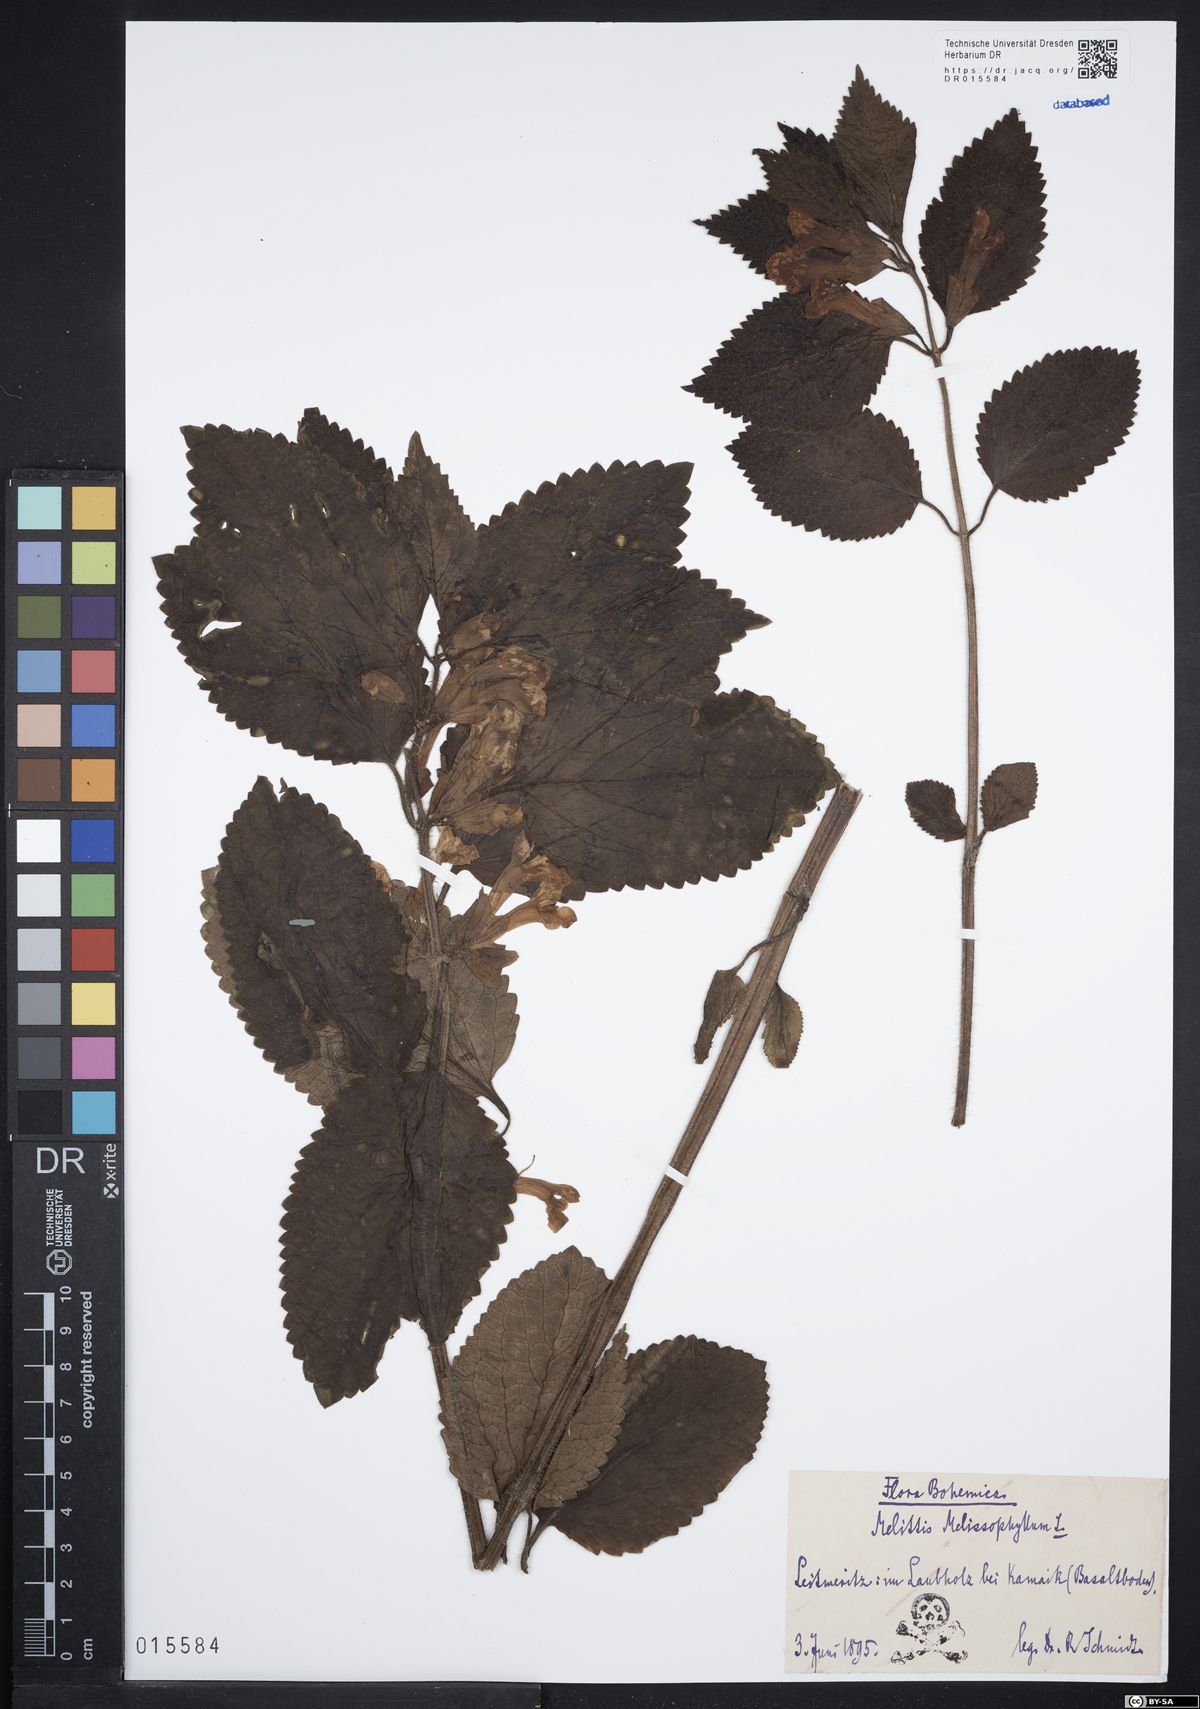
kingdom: Plantae
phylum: Tracheophyta
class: Magnoliopsida
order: Lamiales
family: Lamiaceae
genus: Melittis
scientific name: Melittis melissophyllum
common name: Bastard balm
